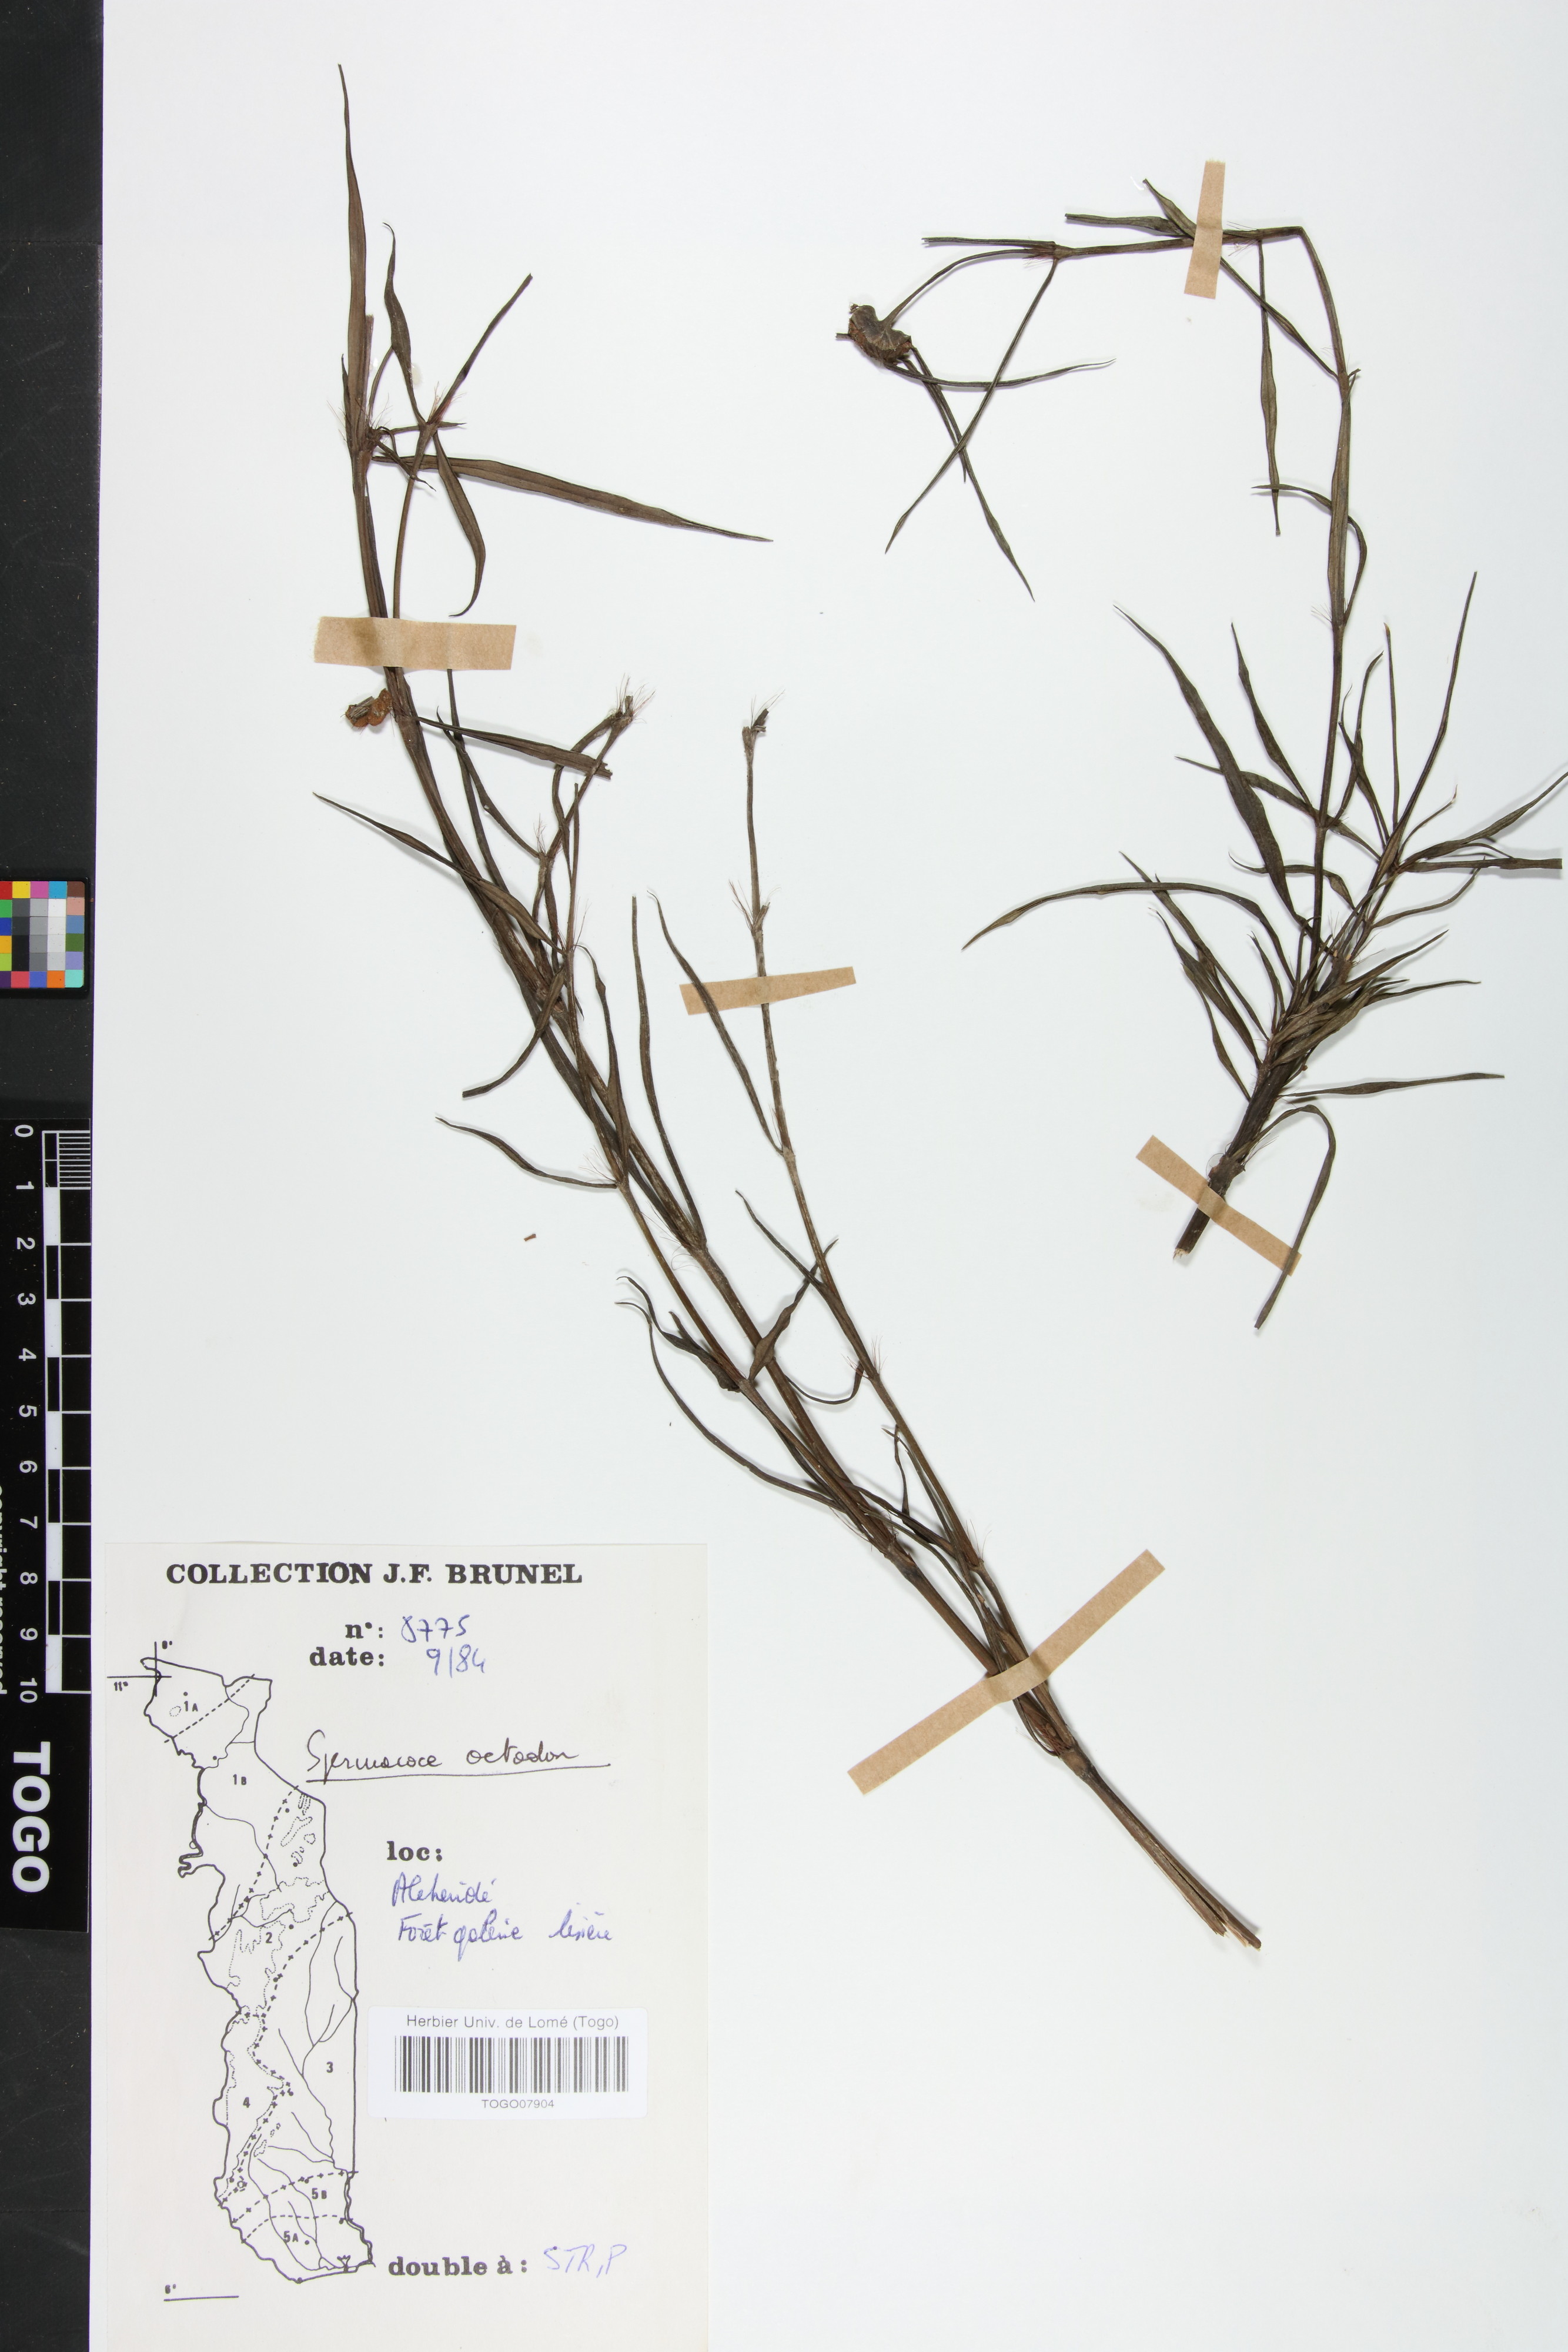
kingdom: Plantae
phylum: Tracheophyta
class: Magnoliopsida
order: Gentianales
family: Rubiaceae
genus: Spermacoce
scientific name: Spermacoce octodon
